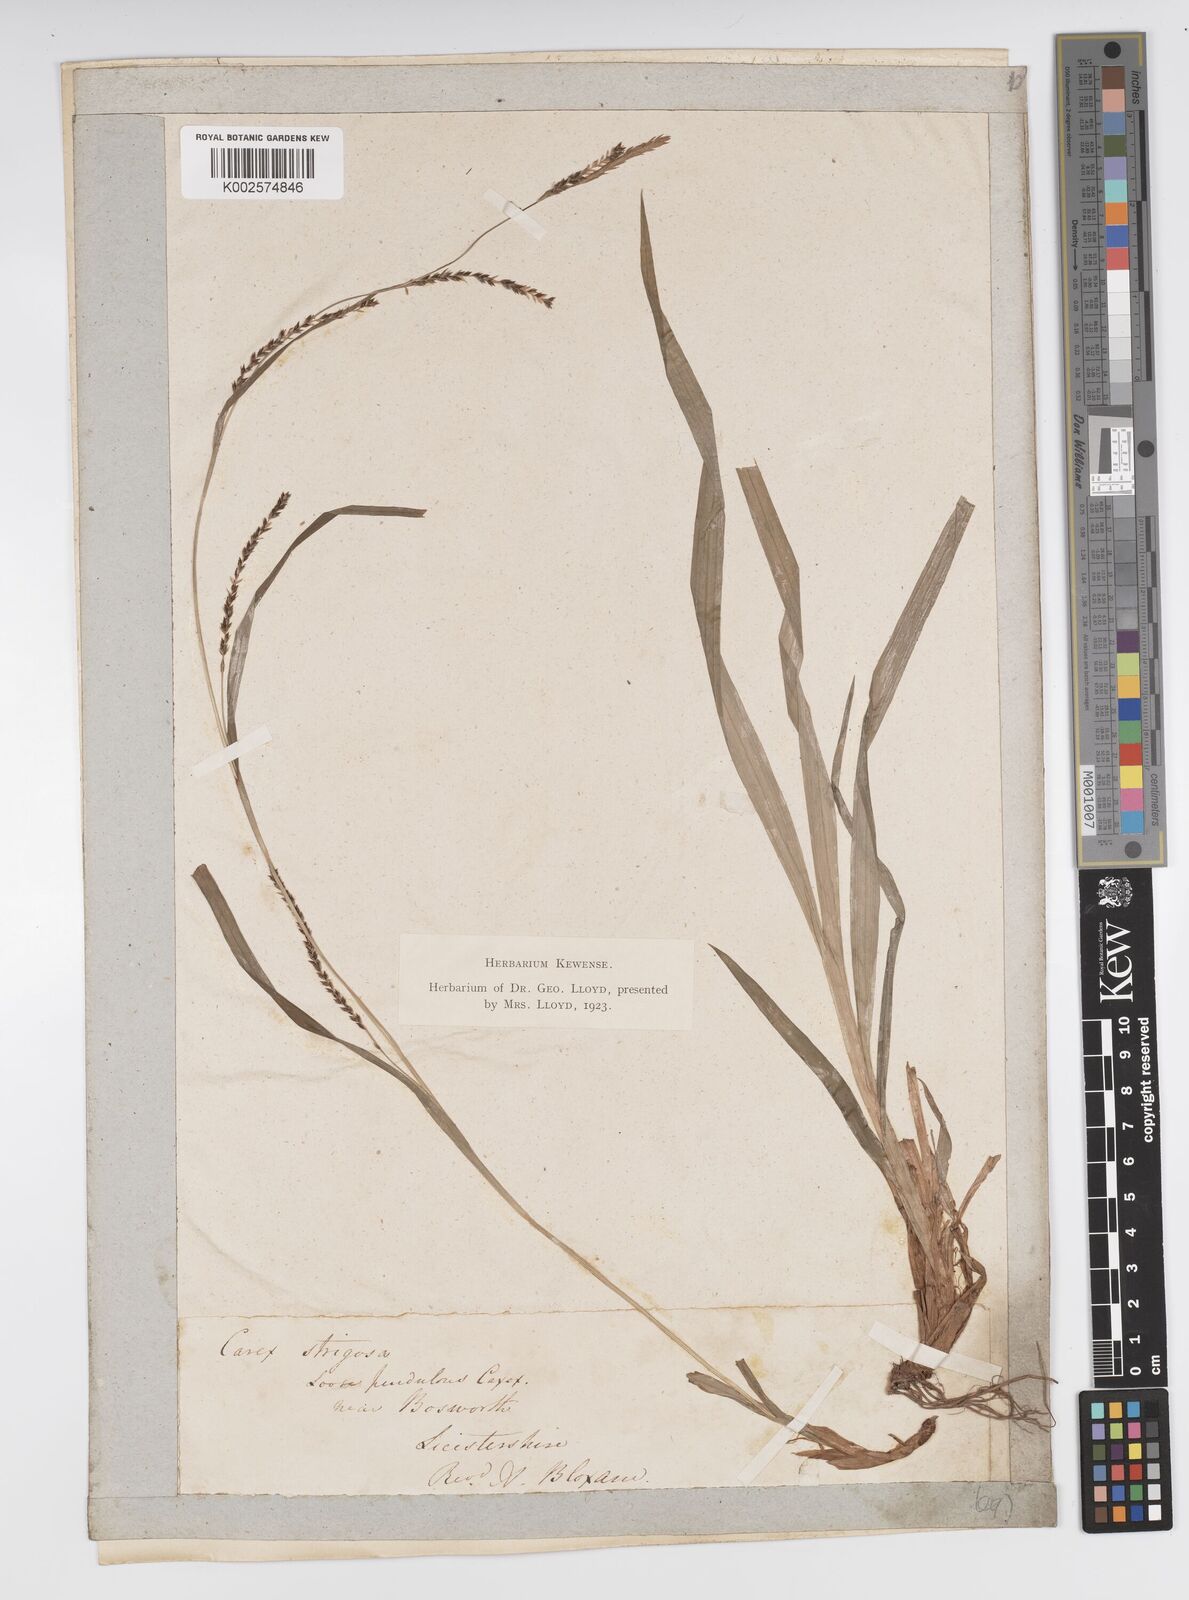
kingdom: Plantae
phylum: Tracheophyta
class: Liliopsida
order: Poales
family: Cyperaceae
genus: Carex
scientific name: Carex strigosa
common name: Thin-spiked wood-sedge
